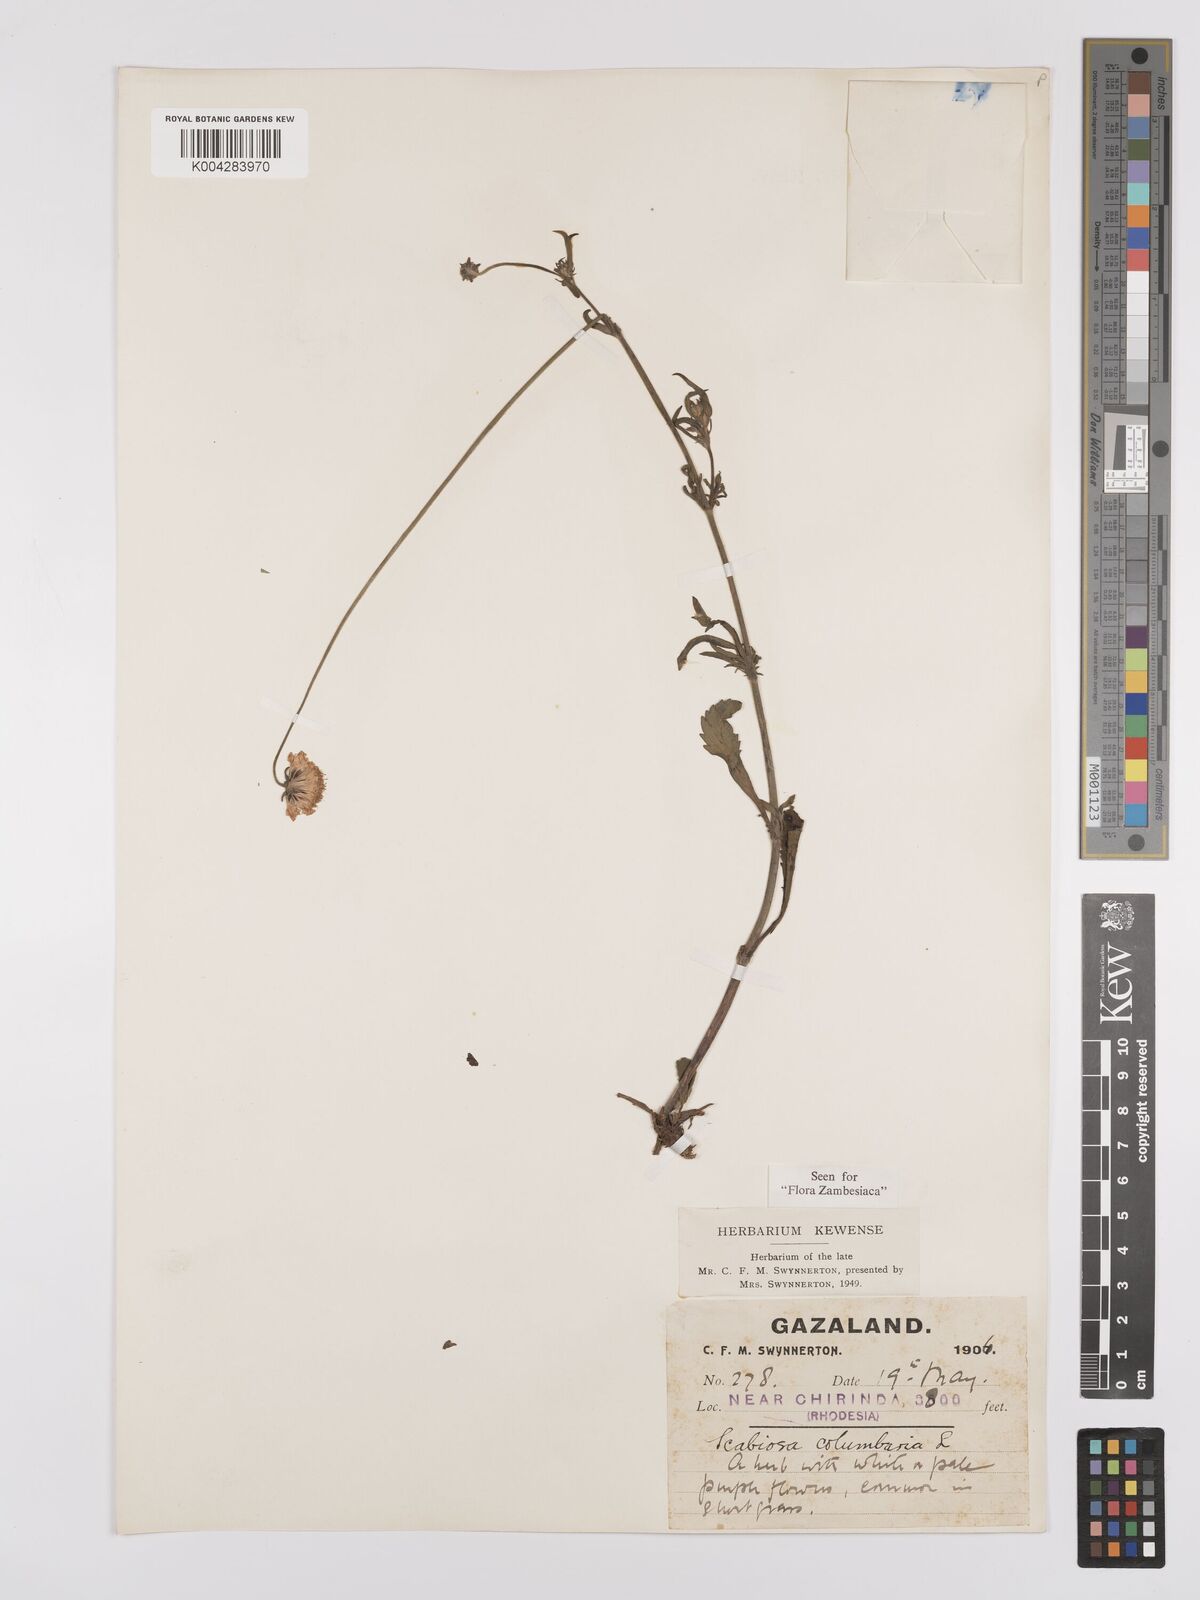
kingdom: Plantae
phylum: Tracheophyta
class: Magnoliopsida
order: Dipsacales
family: Caprifoliaceae
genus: Scabiosa
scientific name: Scabiosa columbaria
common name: Small scabious
